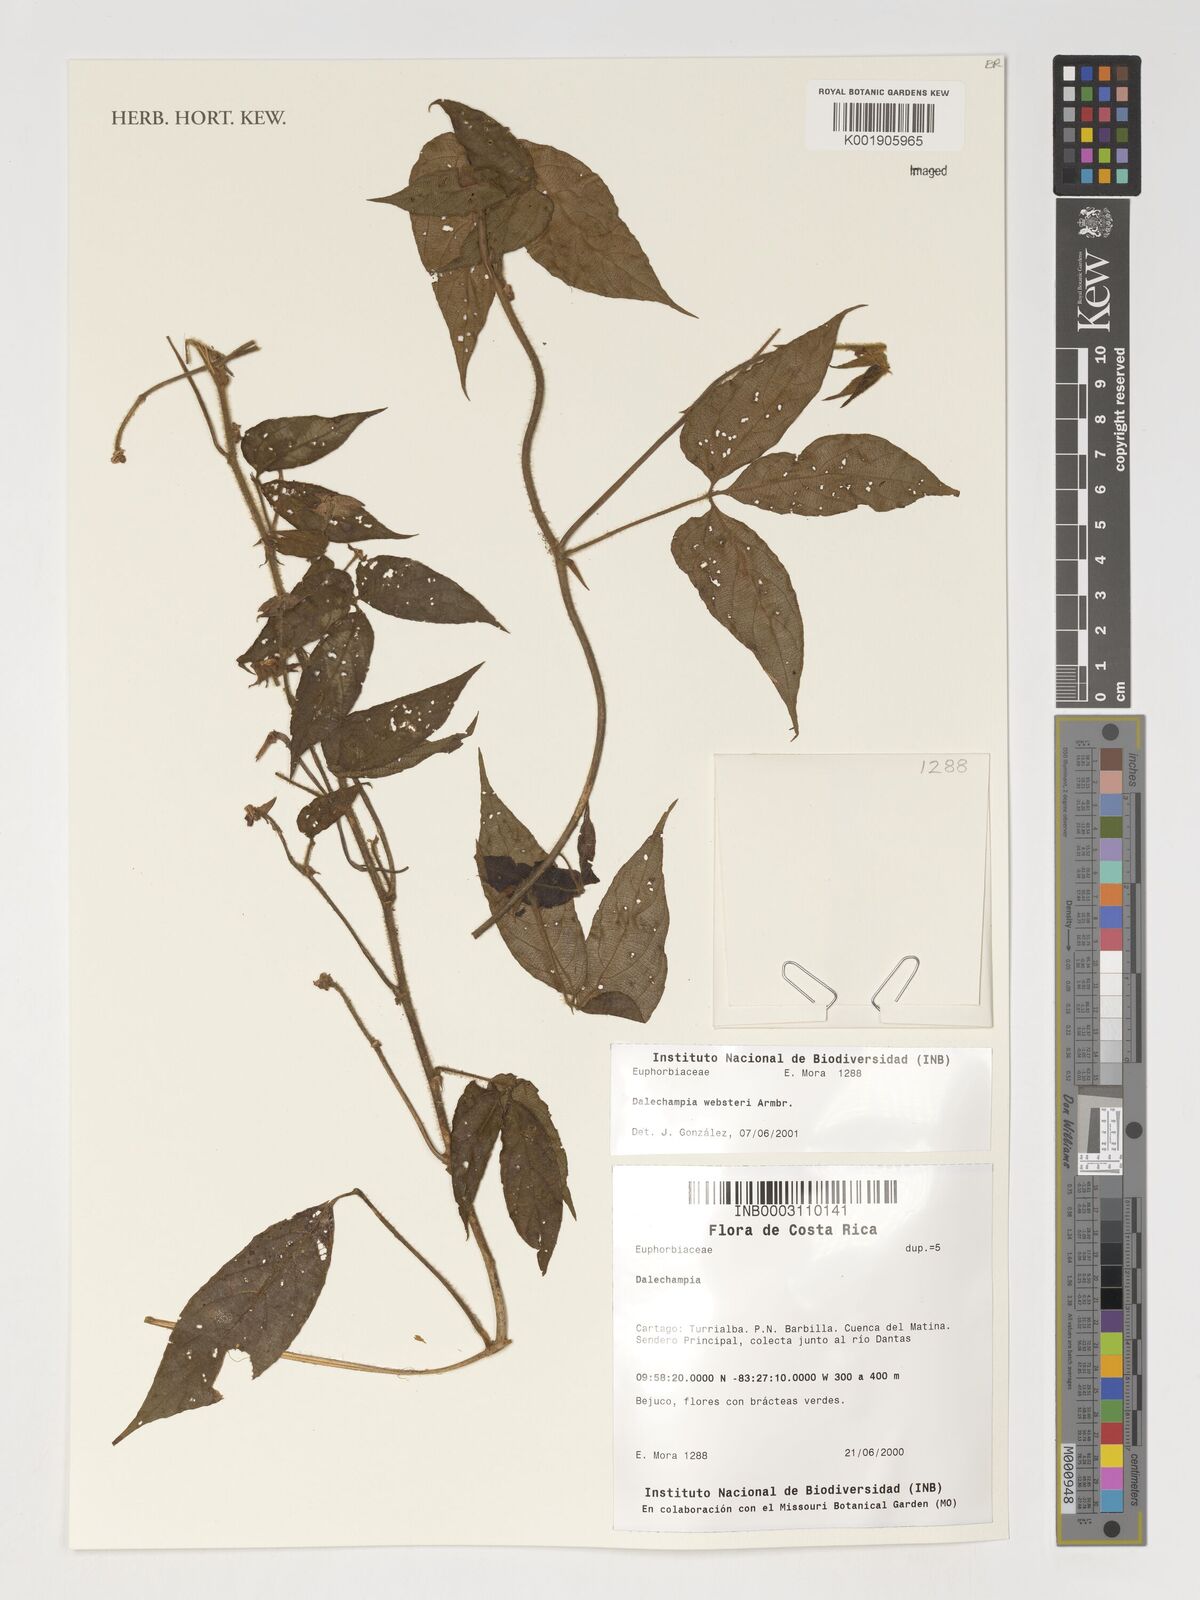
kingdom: Plantae
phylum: Tracheophyta
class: Magnoliopsida
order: Malpighiales
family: Euphorbiaceae
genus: Dalechampia
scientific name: Dalechampia websteri
